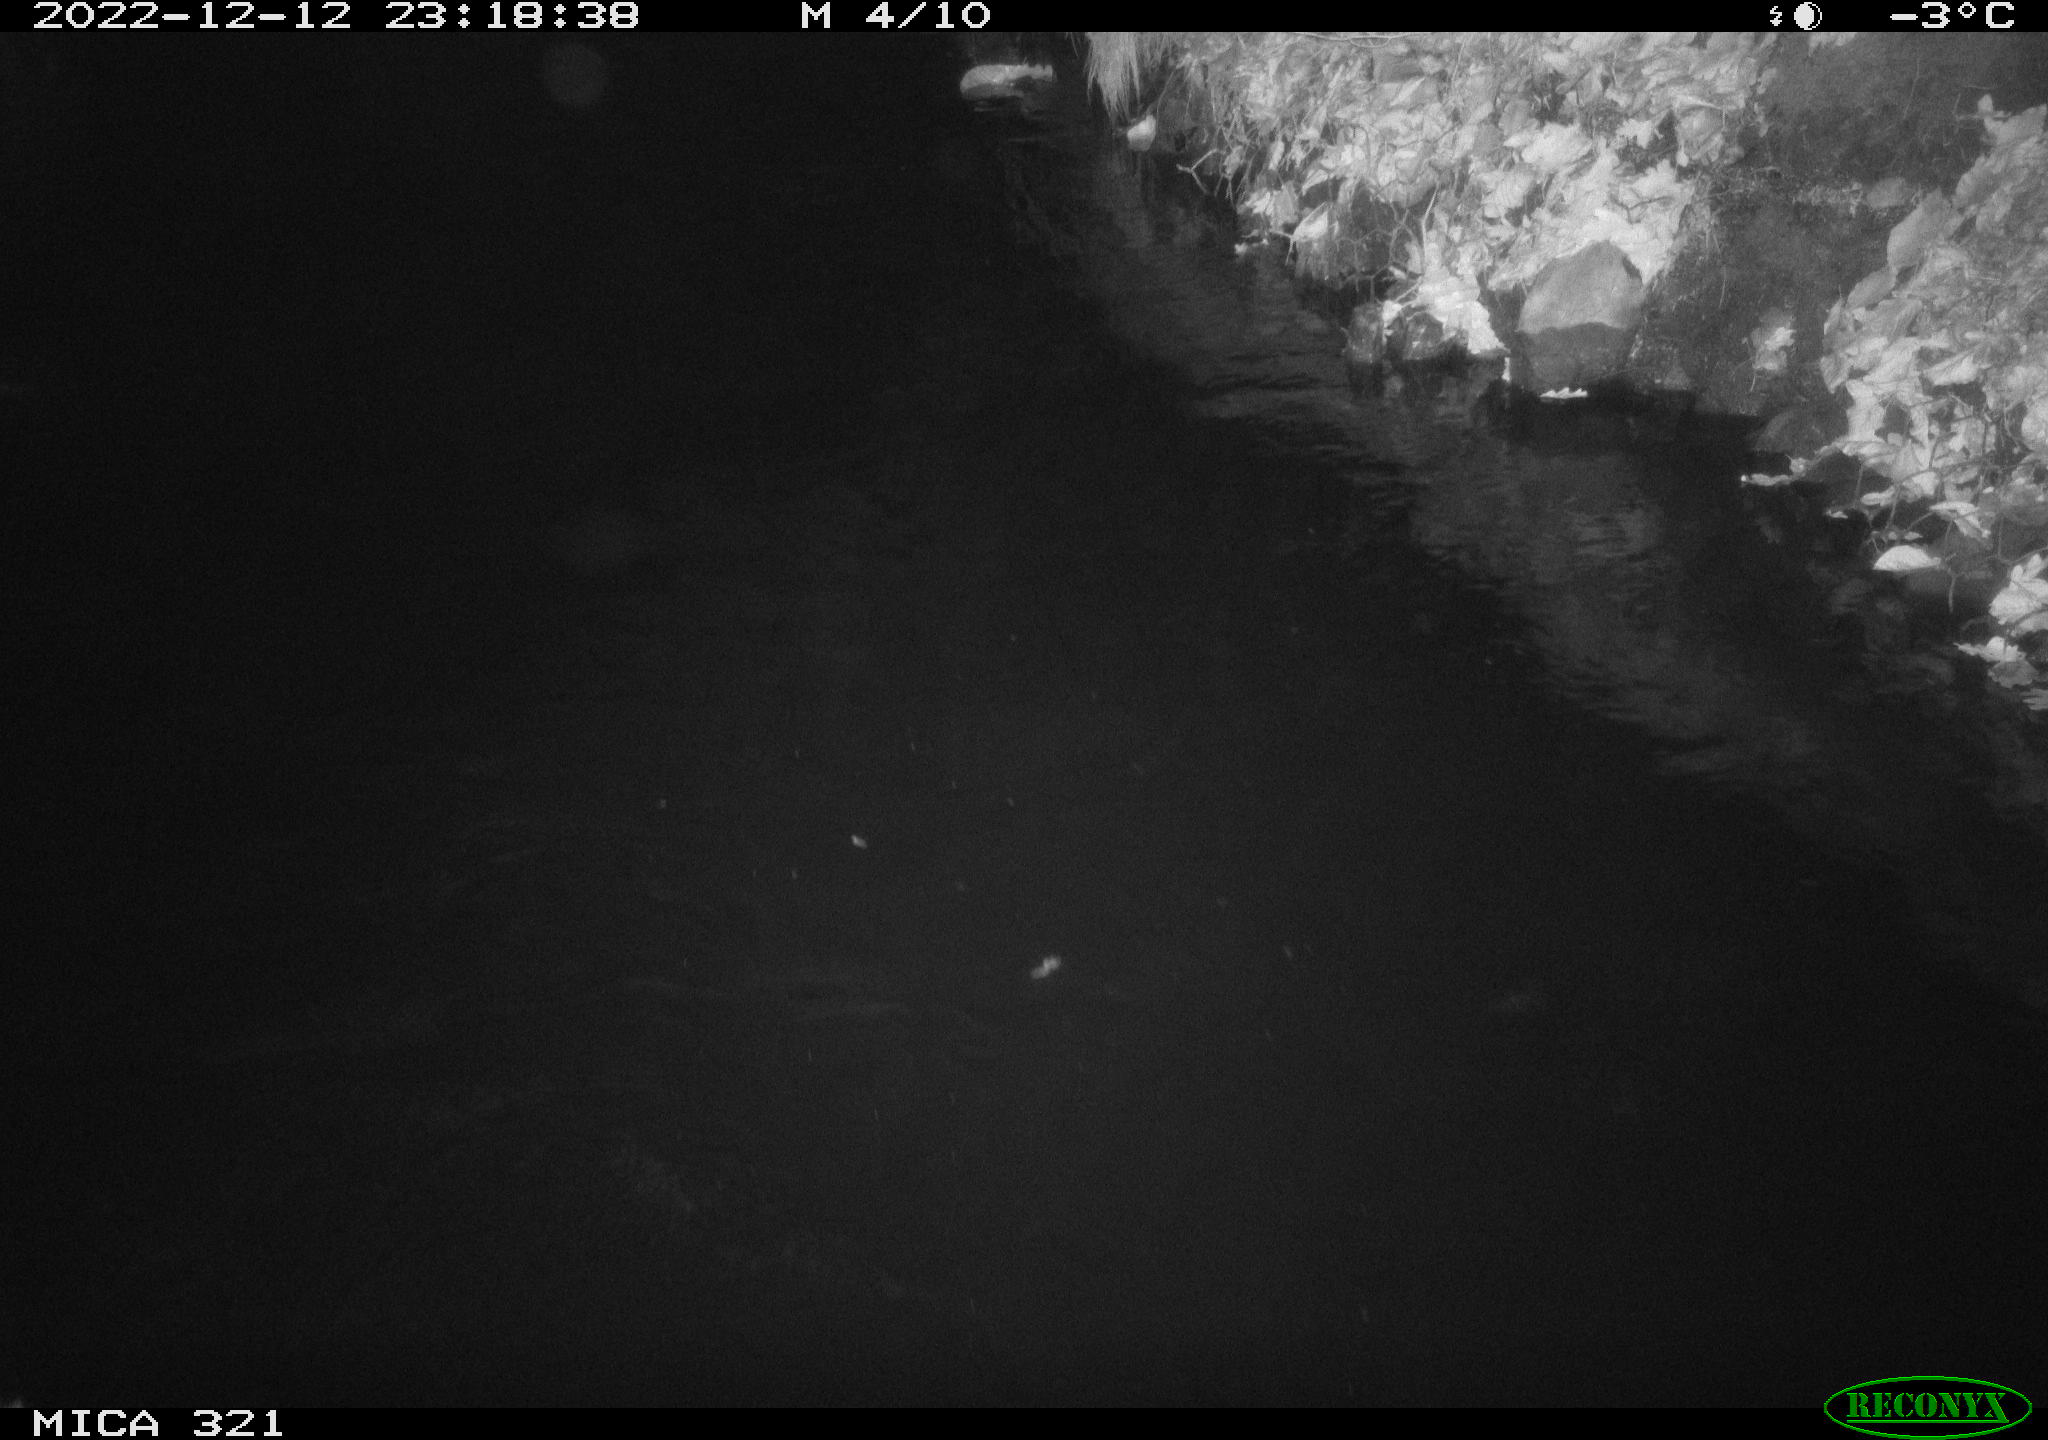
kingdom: Animalia
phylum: Chordata
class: Aves
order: Anseriformes
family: Anatidae
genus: Anas
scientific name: Anas
